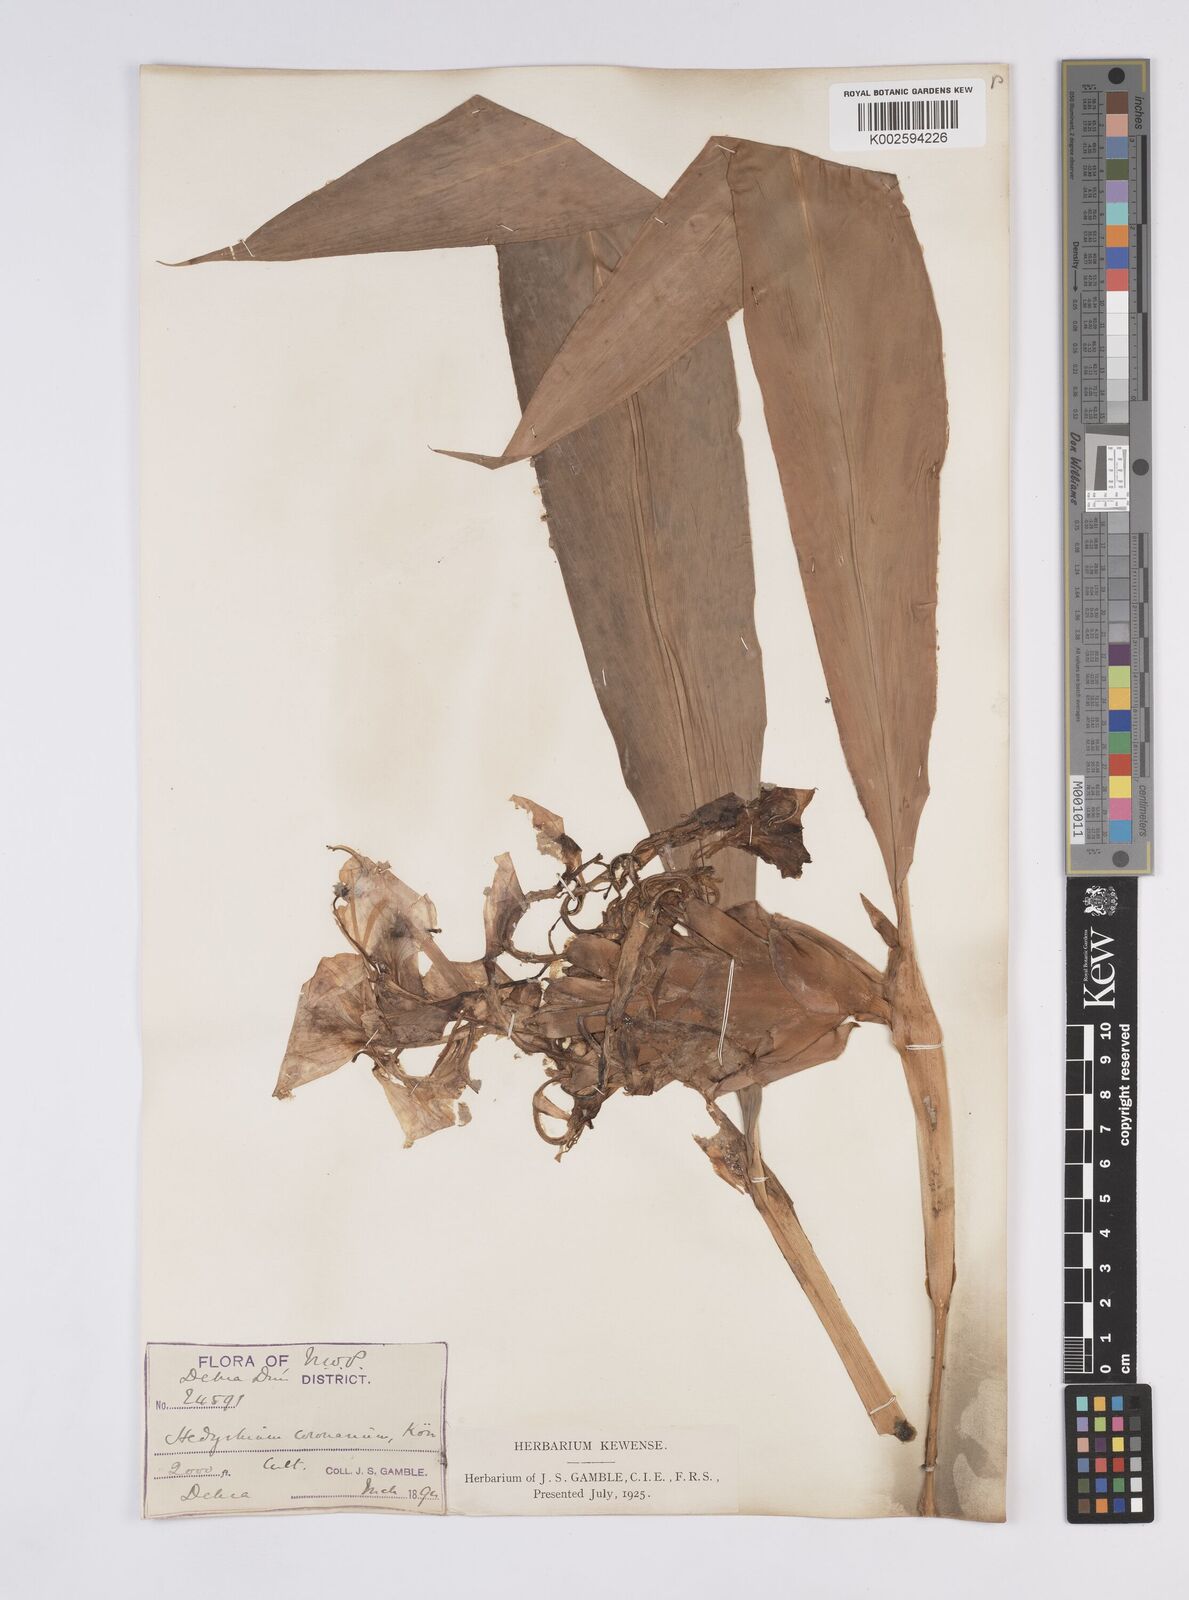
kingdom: Plantae
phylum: Tracheophyta
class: Liliopsida
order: Zingiberales
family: Zingiberaceae
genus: Hedychium
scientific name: Hedychium coronarium
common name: White garland-lily
